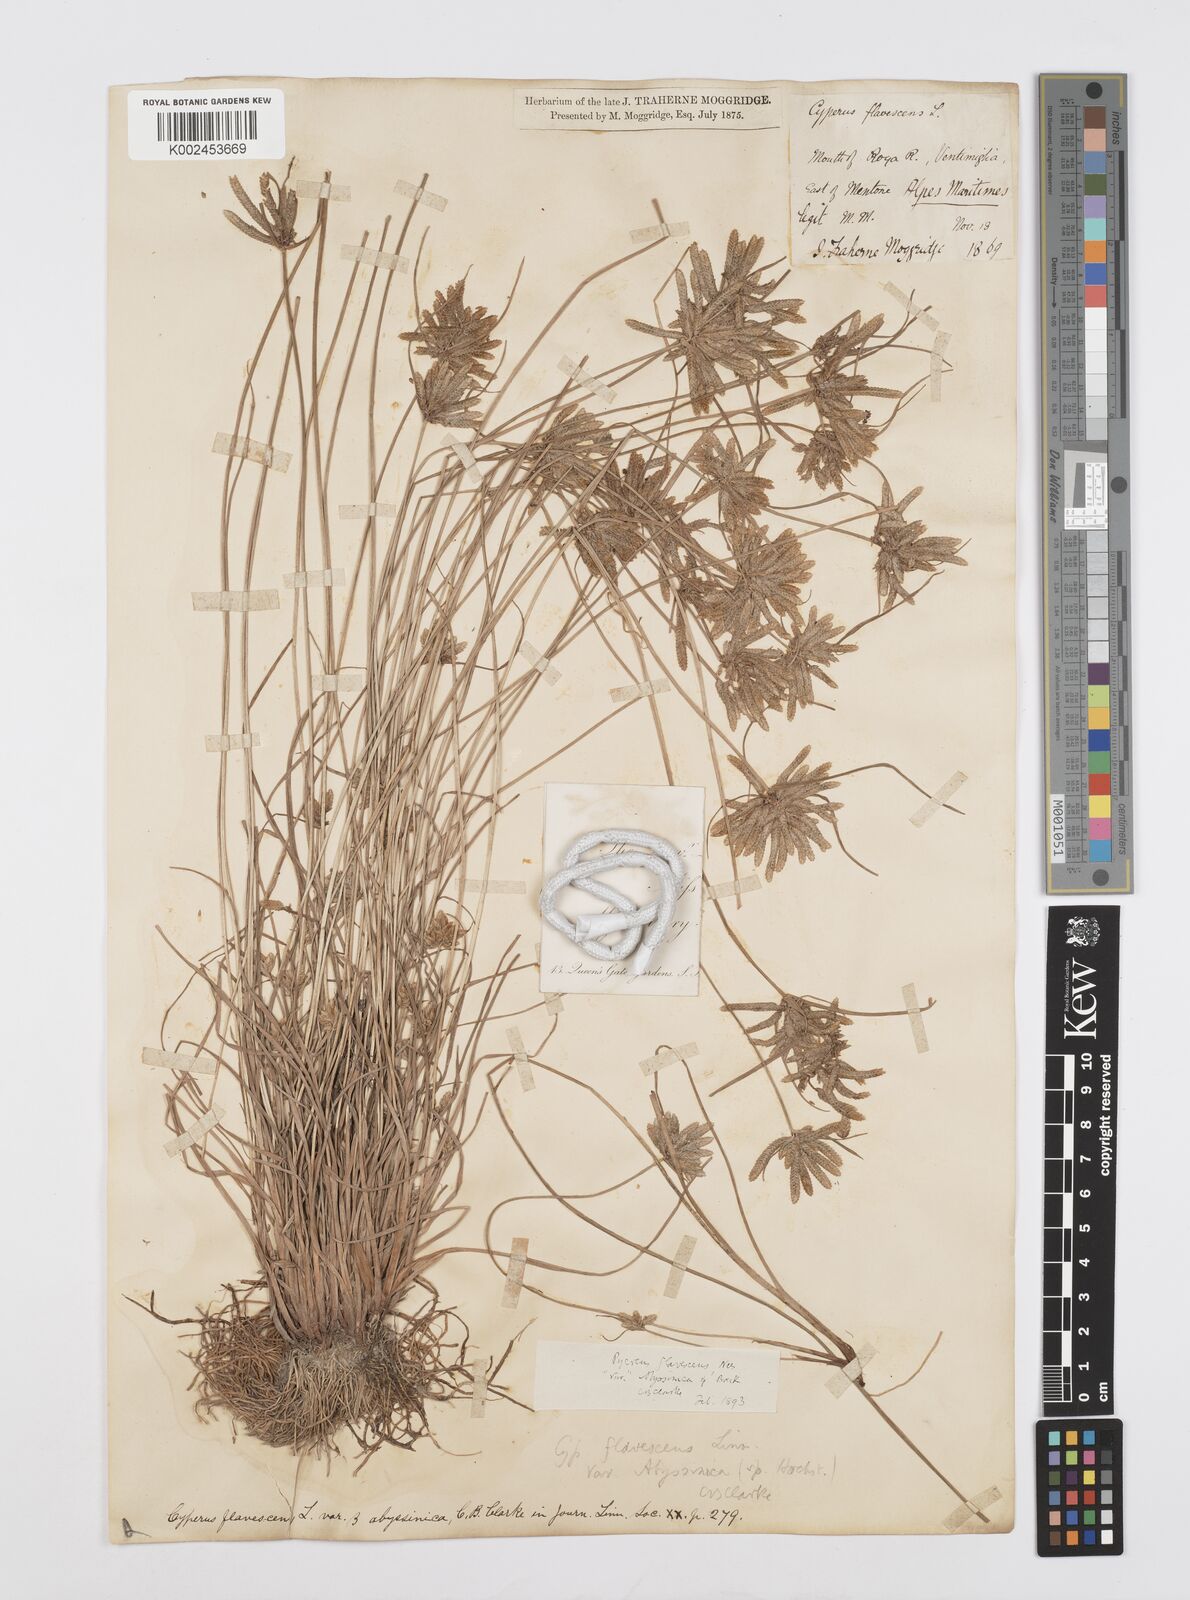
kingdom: Plantae
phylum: Tracheophyta
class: Liliopsida
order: Poales
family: Cyperaceae
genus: Cyperus
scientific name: Cyperus flavescens
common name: Yellow galingale
